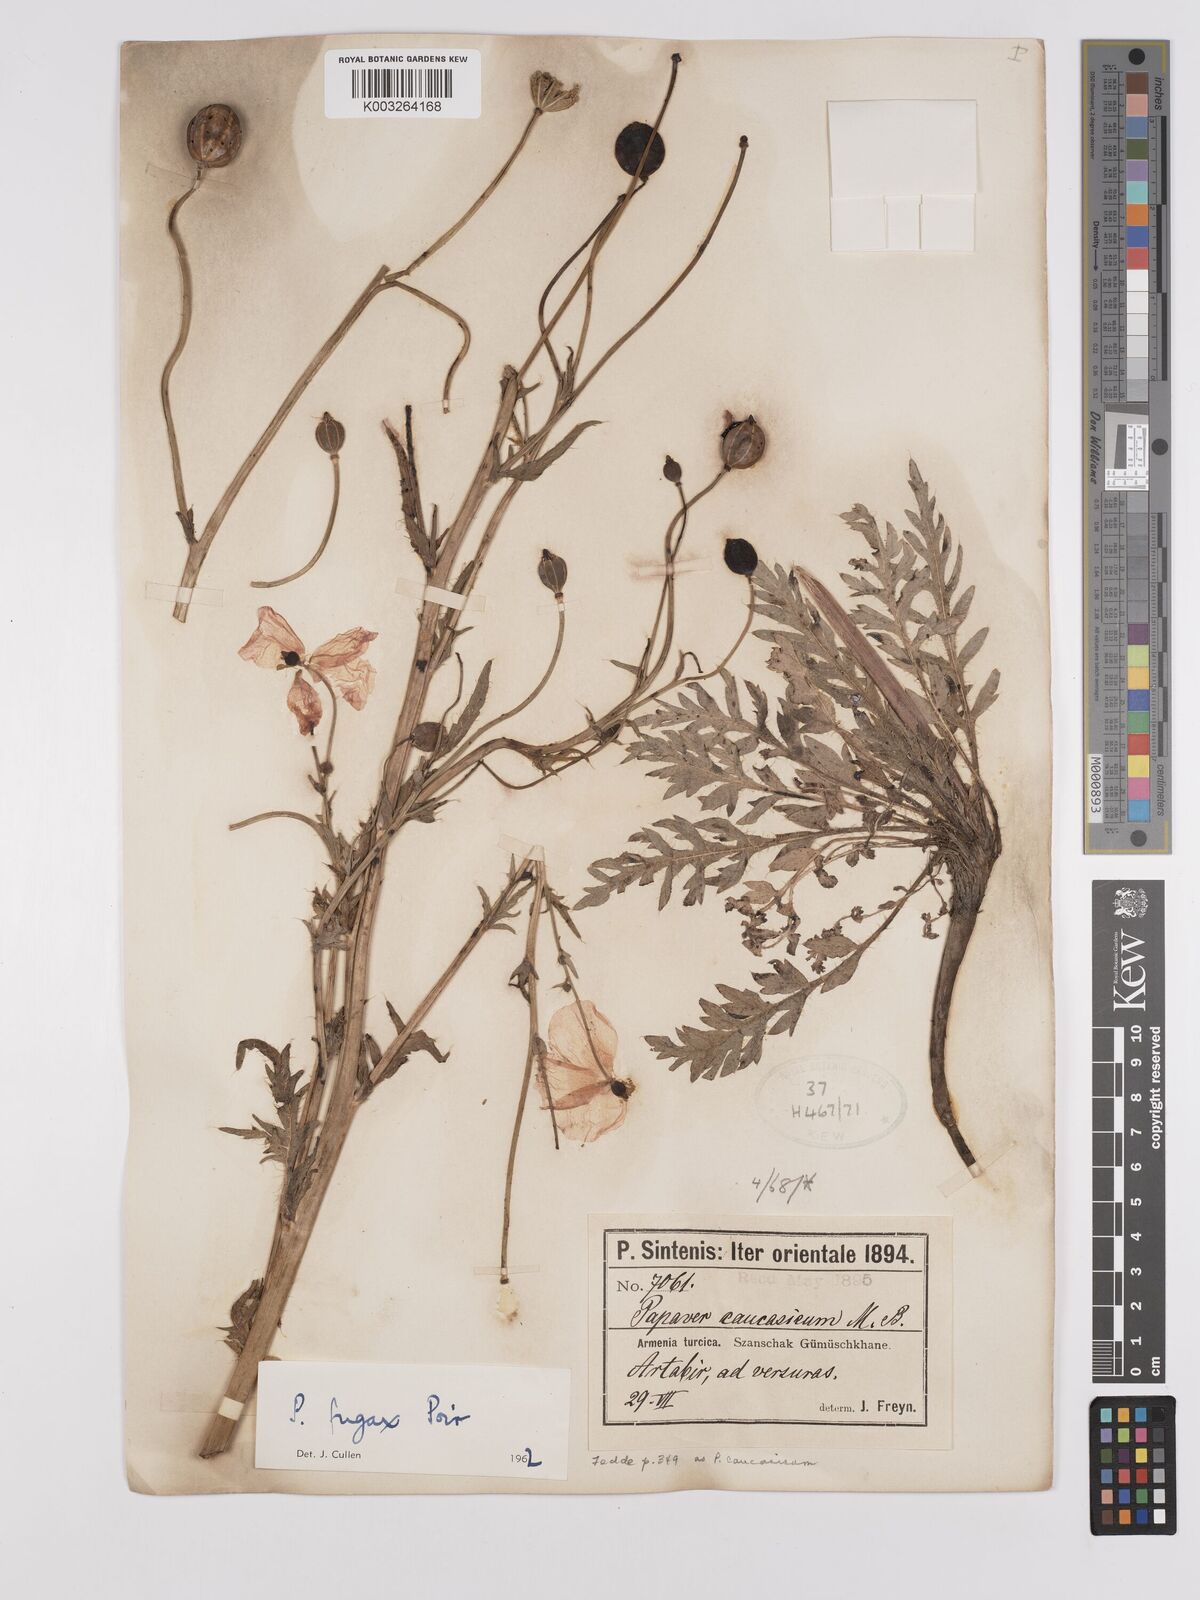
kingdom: Plantae
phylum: Tracheophyta
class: Magnoliopsida
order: Ranunculales
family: Papaveraceae
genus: Papaver
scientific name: Papaver armeniacum
